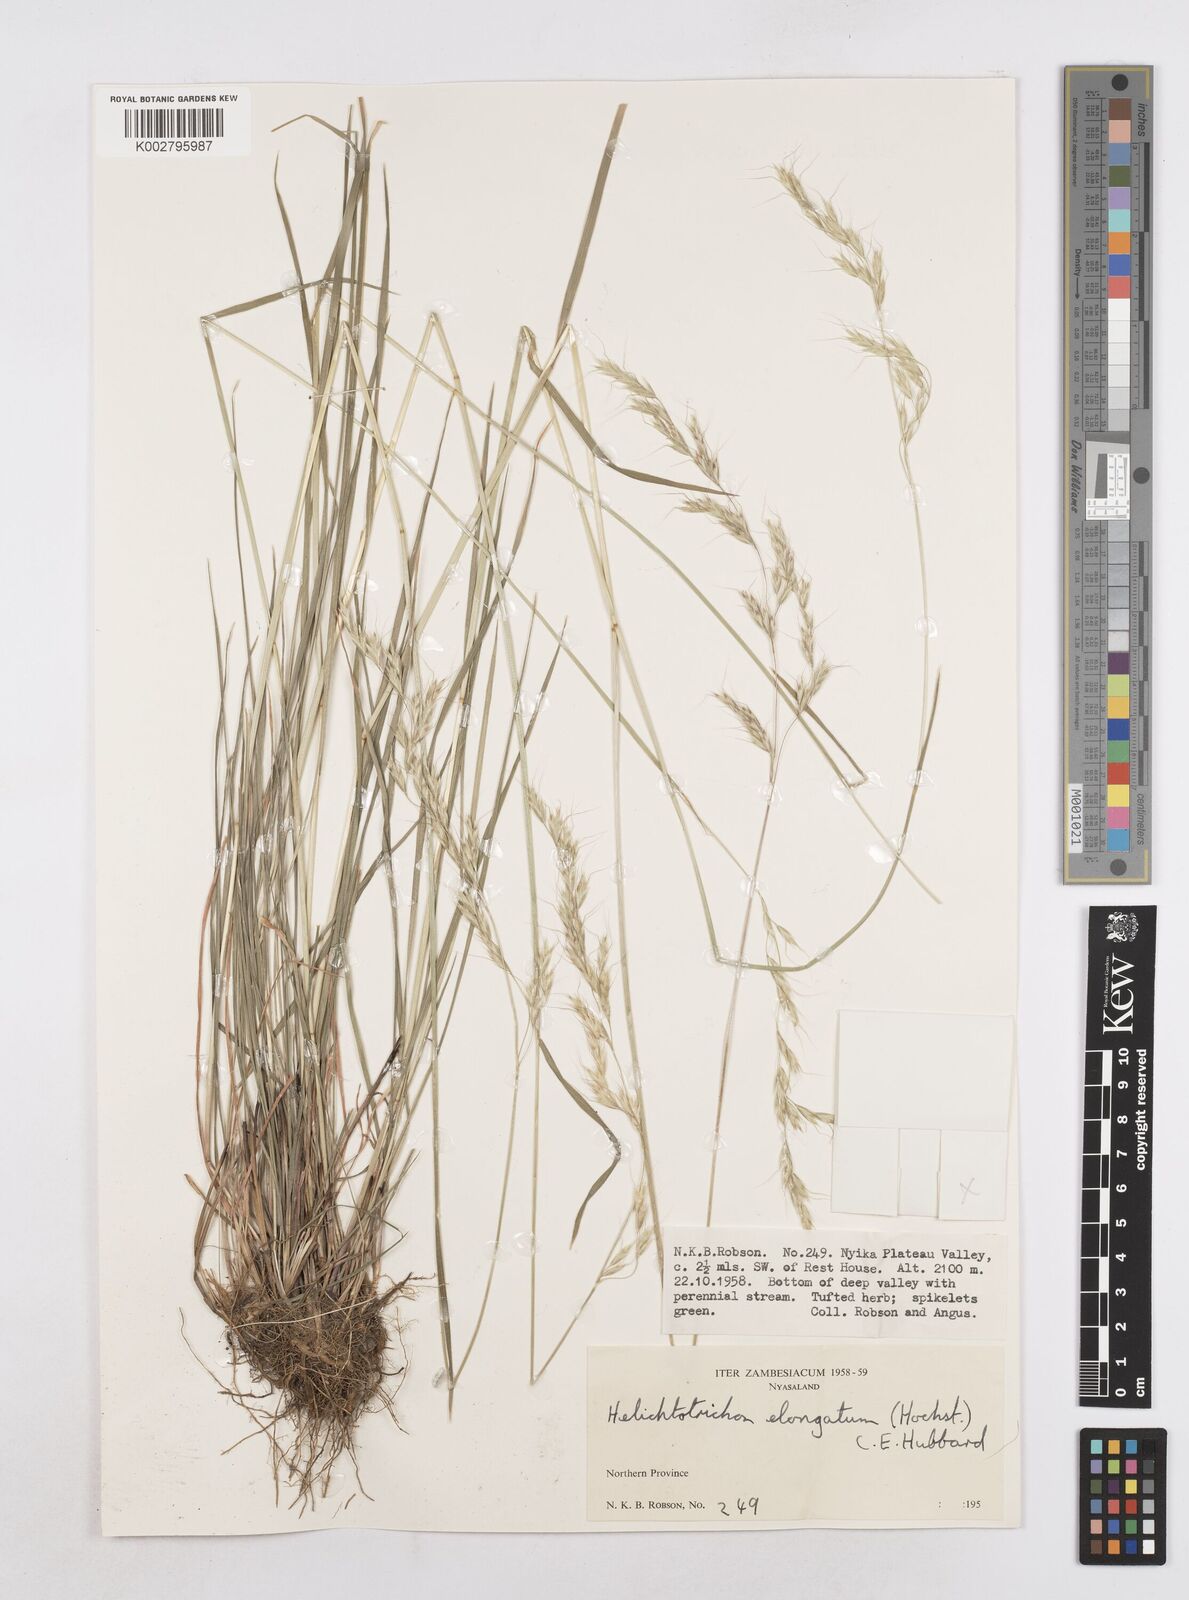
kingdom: Plantae
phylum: Tracheophyta
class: Liliopsida
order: Poales
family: Poaceae
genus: Trisetopsis
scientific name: Trisetopsis elongata
